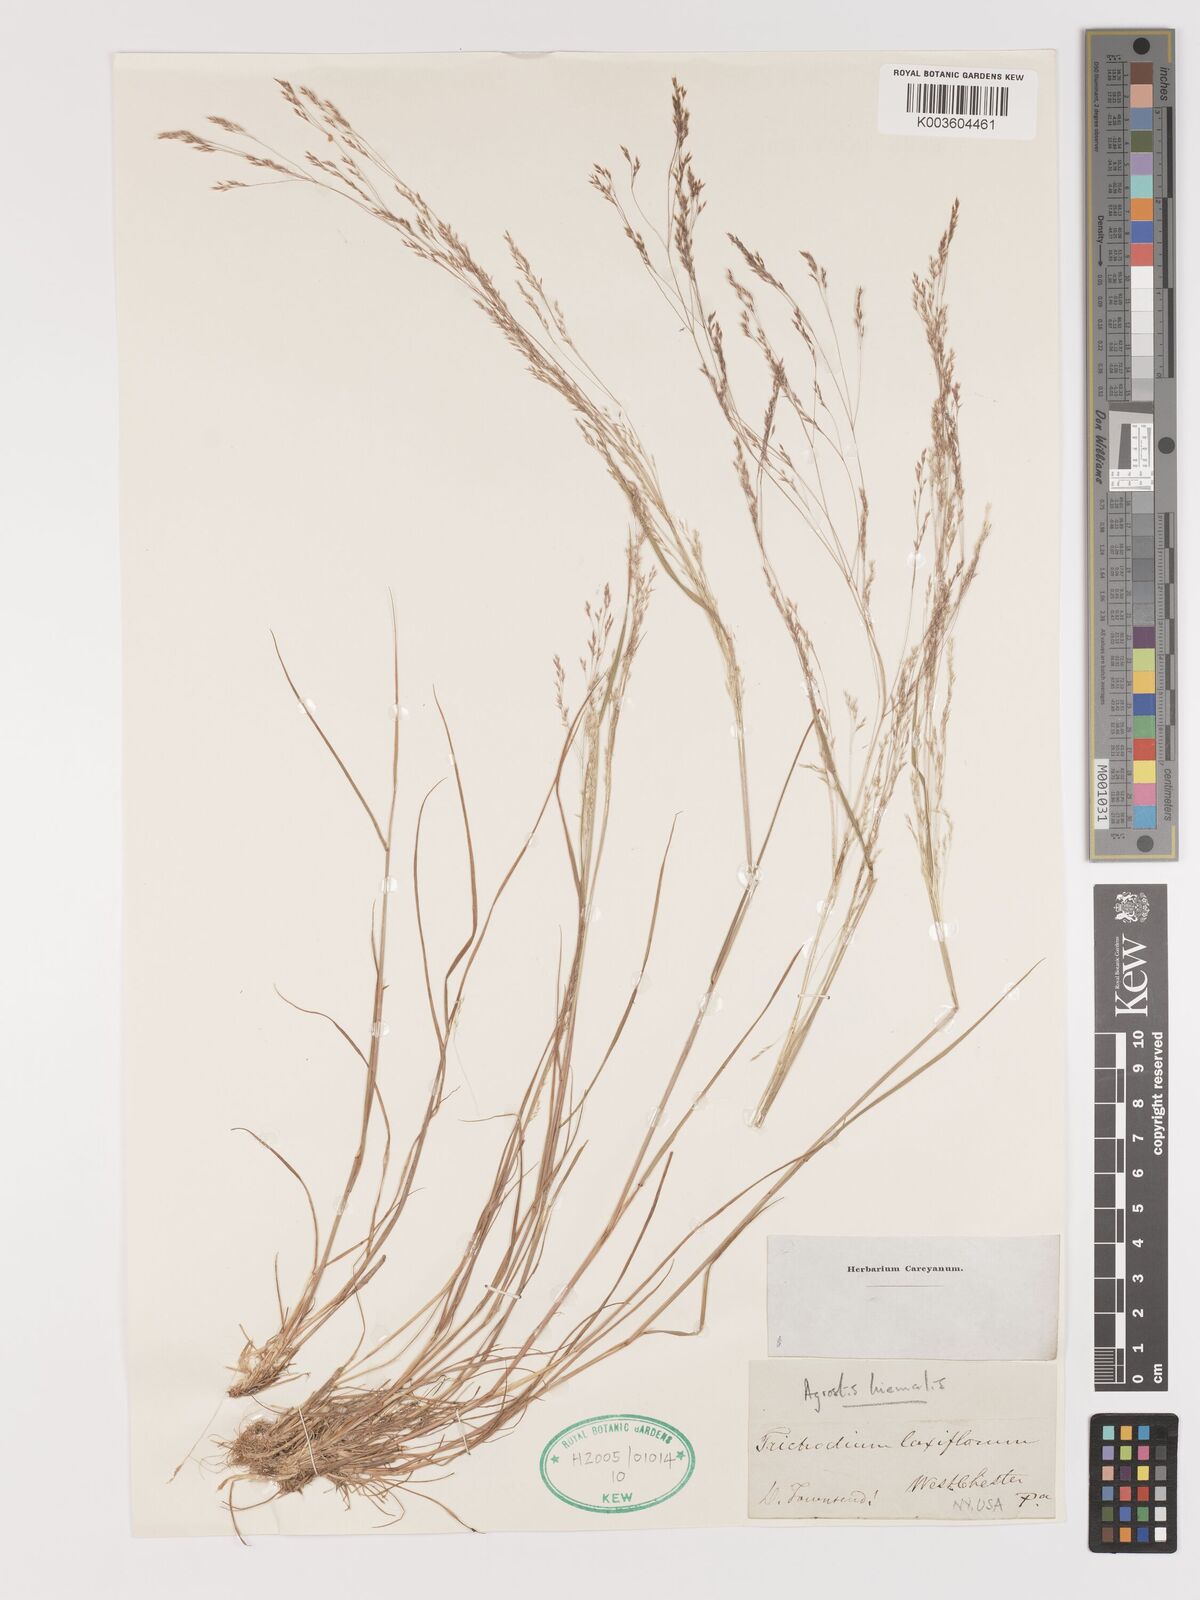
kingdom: Plantae
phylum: Tracheophyta
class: Liliopsida
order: Poales
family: Poaceae
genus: Agrostis
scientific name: Agrostis hyemalis
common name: Small bent
